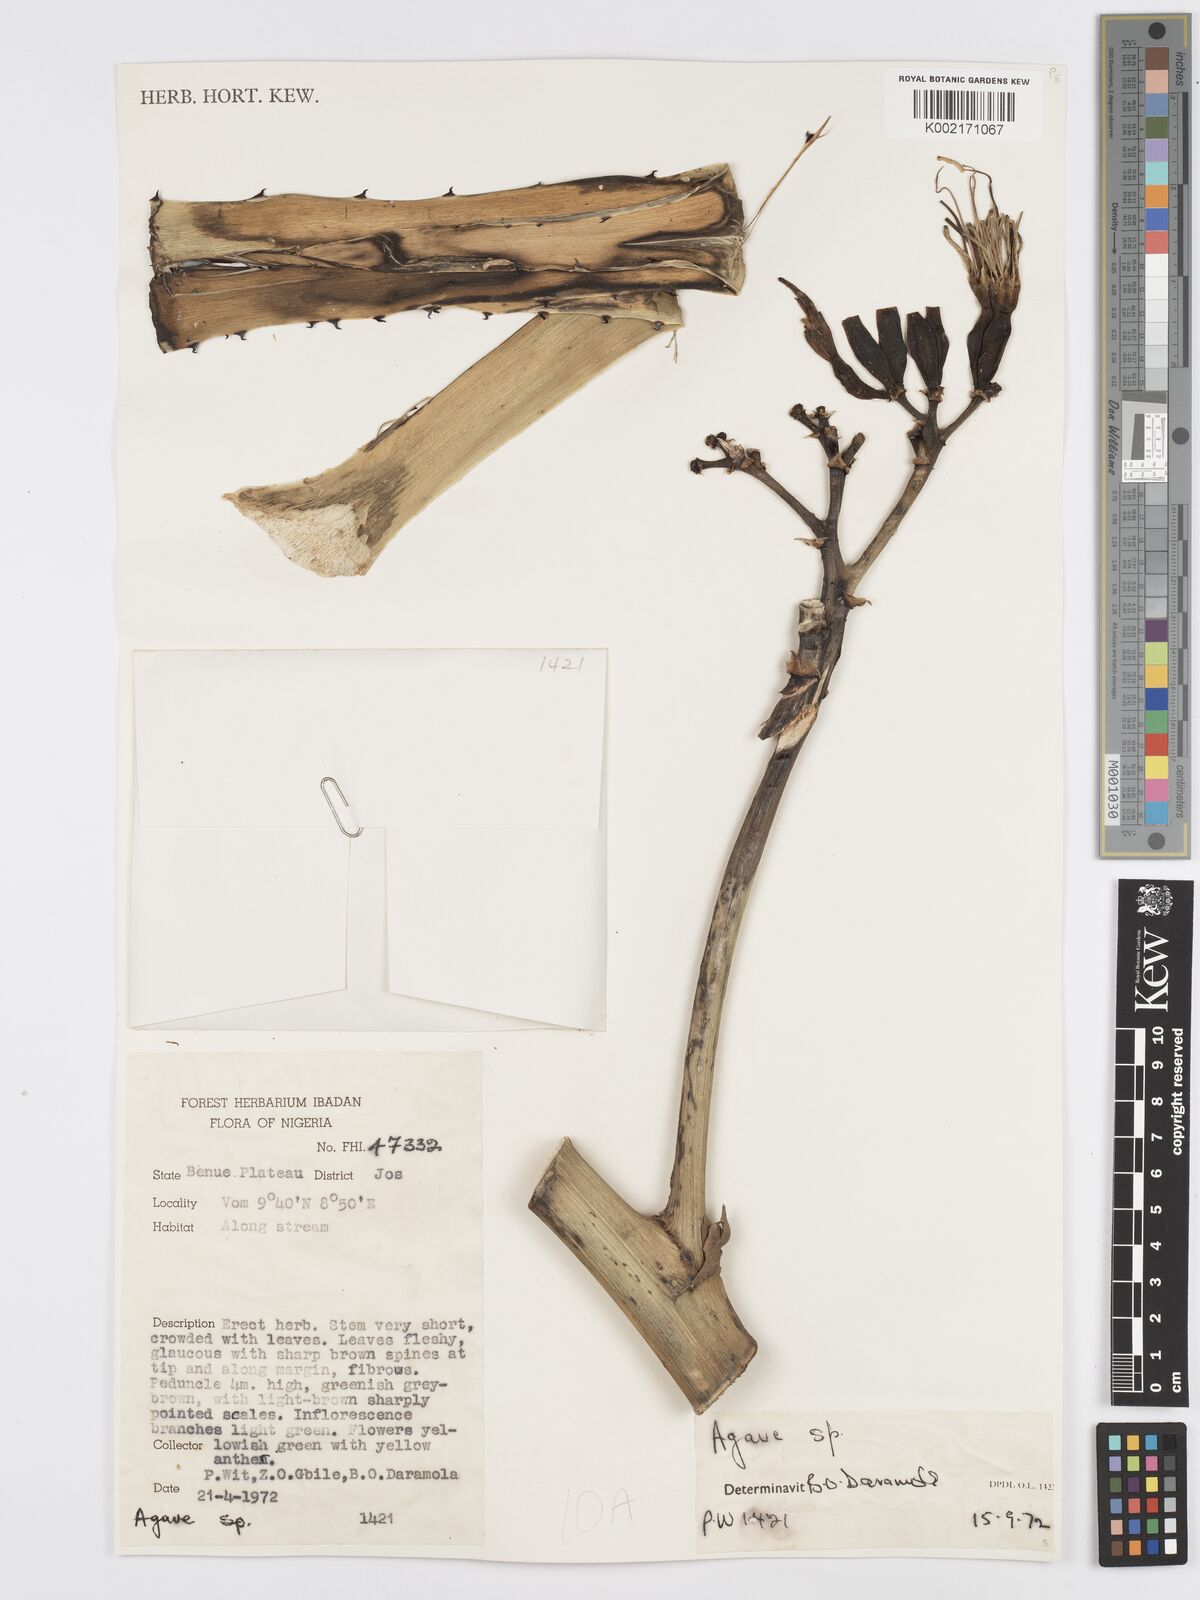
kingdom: Plantae
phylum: Tracheophyta
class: Liliopsida
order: Asparagales
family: Asparagaceae
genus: Agave
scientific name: Agave
